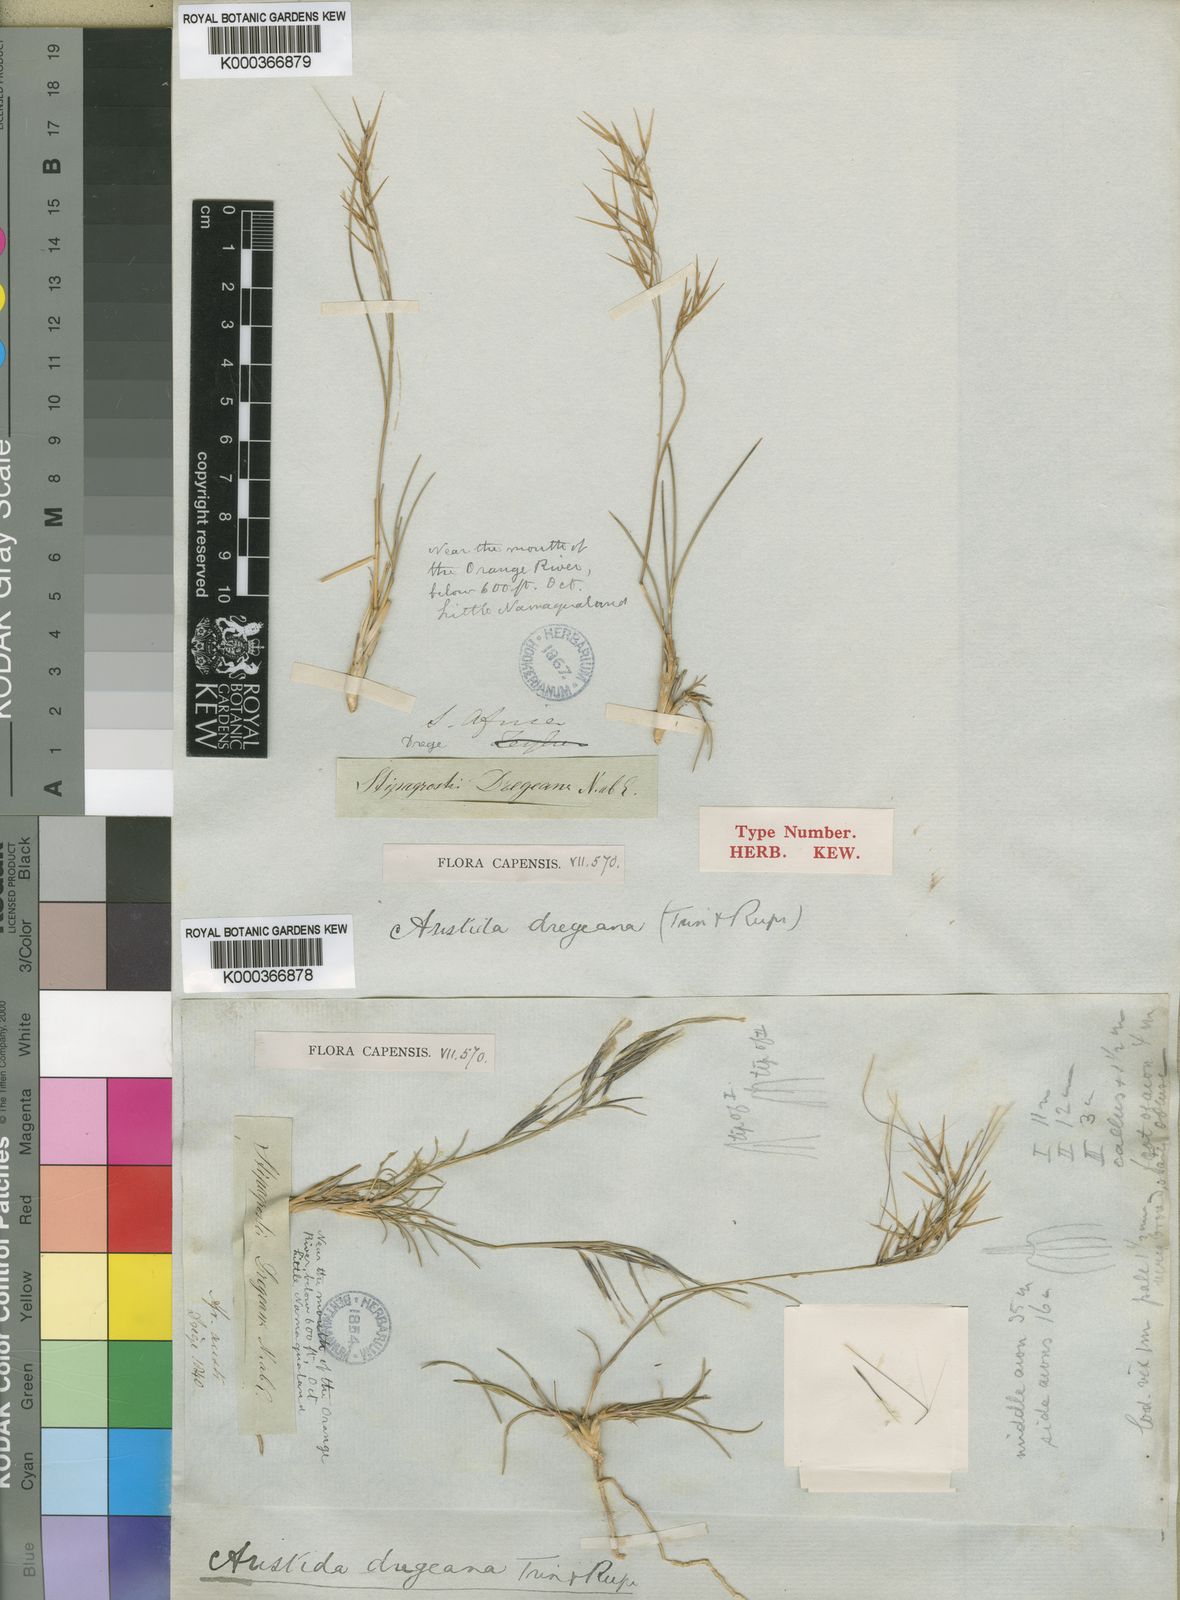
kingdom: Plantae
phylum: Tracheophyta
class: Liliopsida
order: Poales
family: Poaceae
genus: Stipagrostis
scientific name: Stipagrostis dregeana
